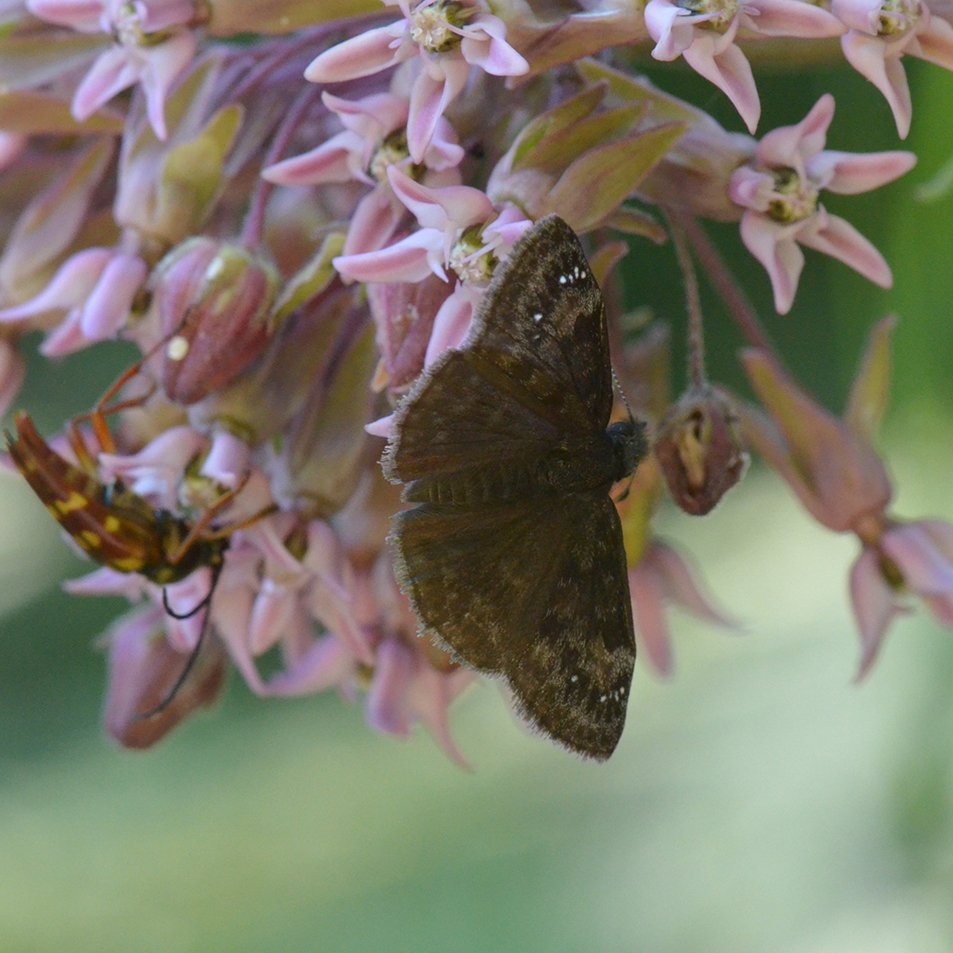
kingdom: Animalia
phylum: Arthropoda
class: Insecta
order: Lepidoptera
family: Hesperiidae
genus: Gesta
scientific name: Gesta
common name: Columbine Duskywing
